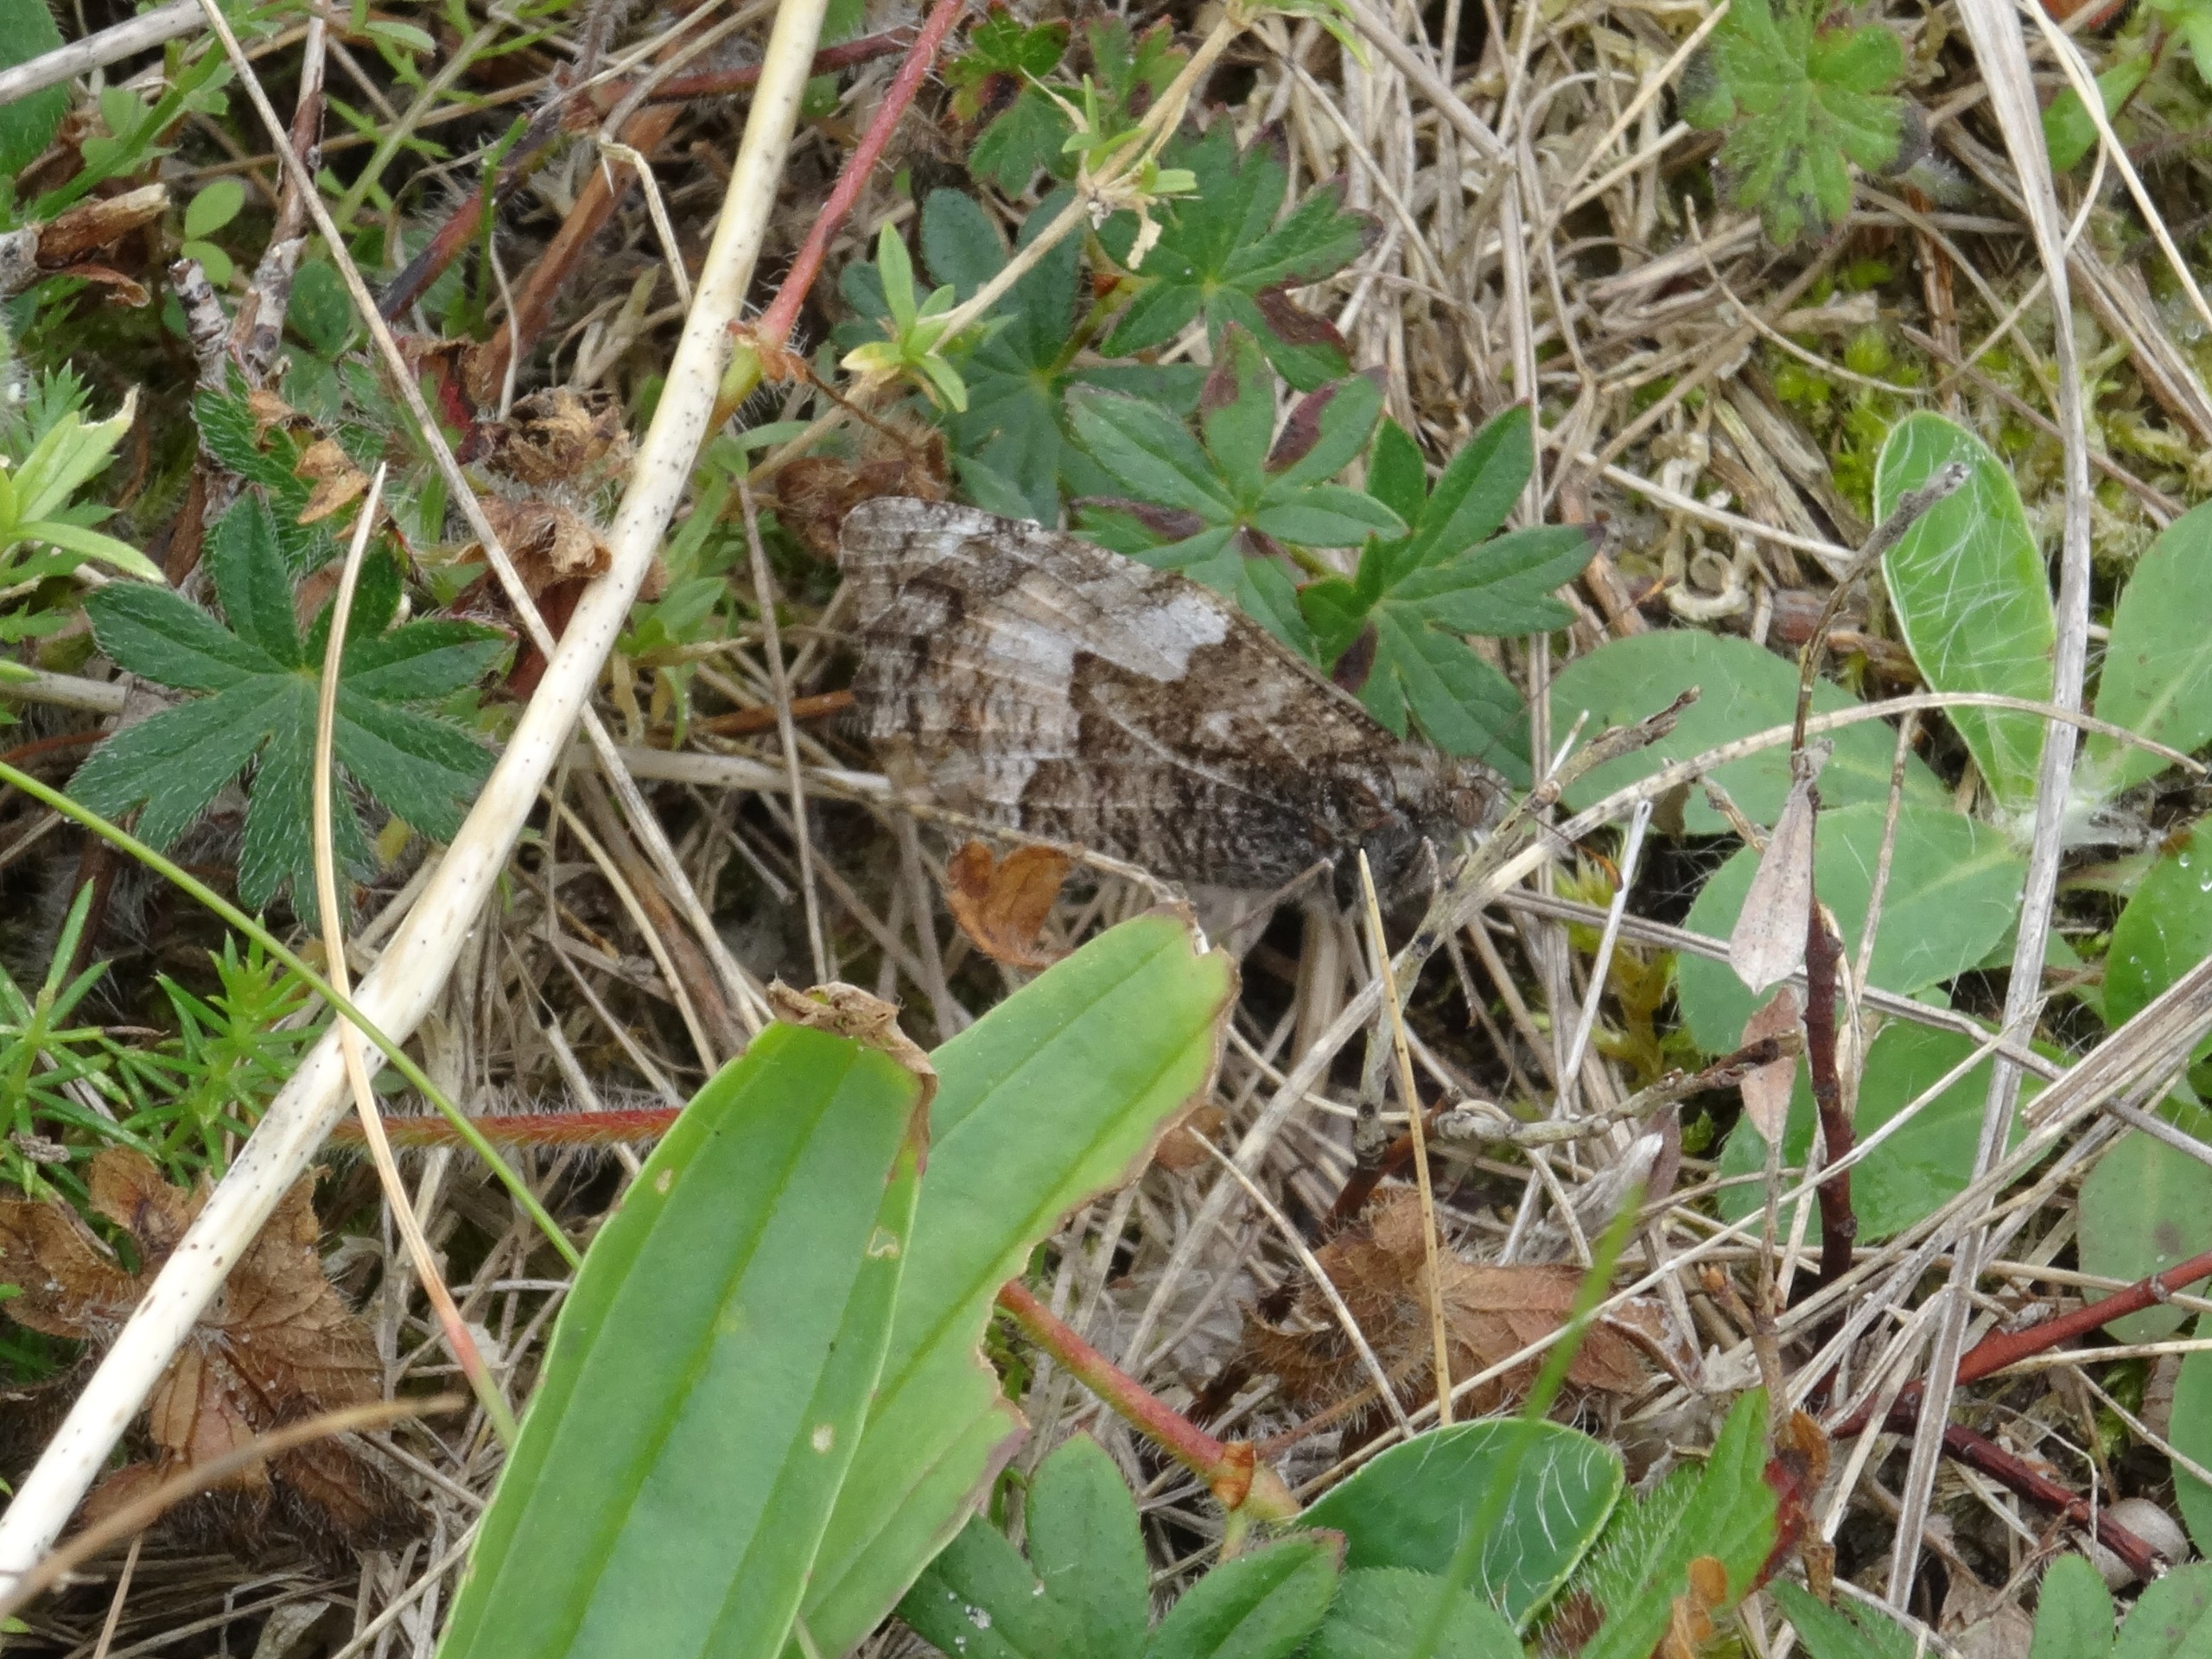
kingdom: Animalia
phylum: Arthropoda
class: Insecta
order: Lepidoptera
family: Nymphalidae
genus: Hipparchia
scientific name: Hipparchia semele
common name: Sandrandøje
